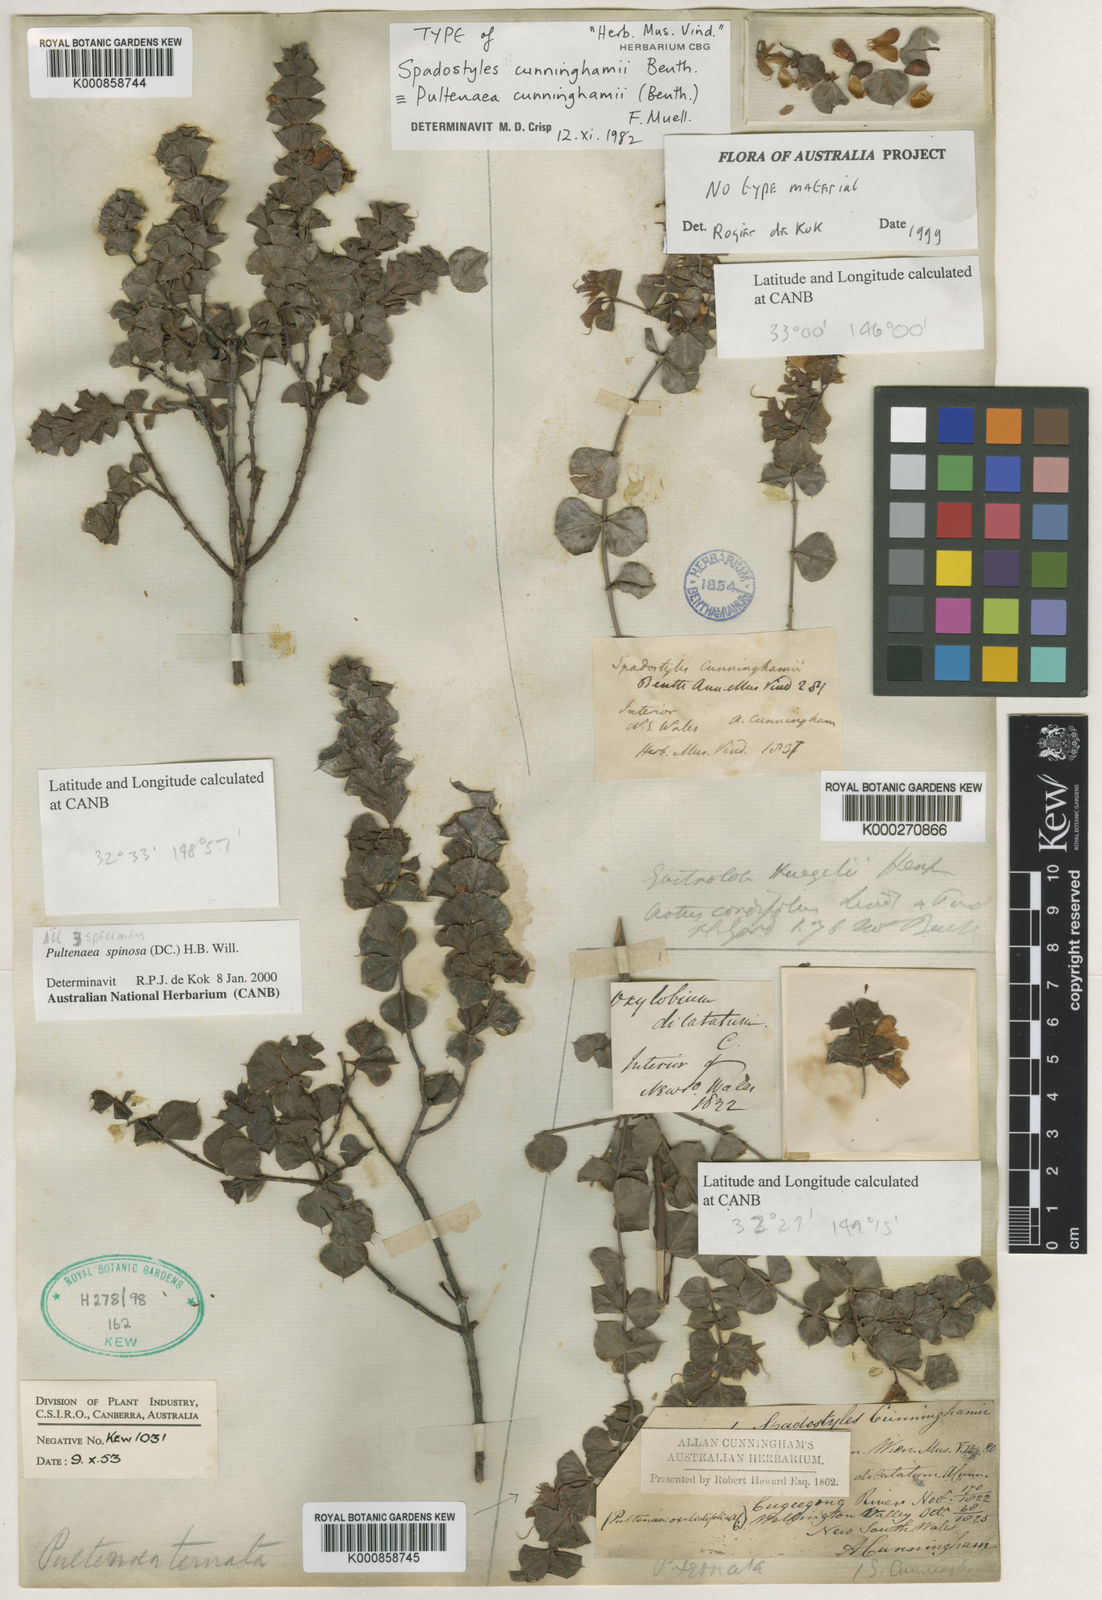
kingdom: Plantae
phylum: Tracheophyta
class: Magnoliopsida
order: Fabales
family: Fabaceae
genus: Pultenaea
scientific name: Pultenaea spinosa
